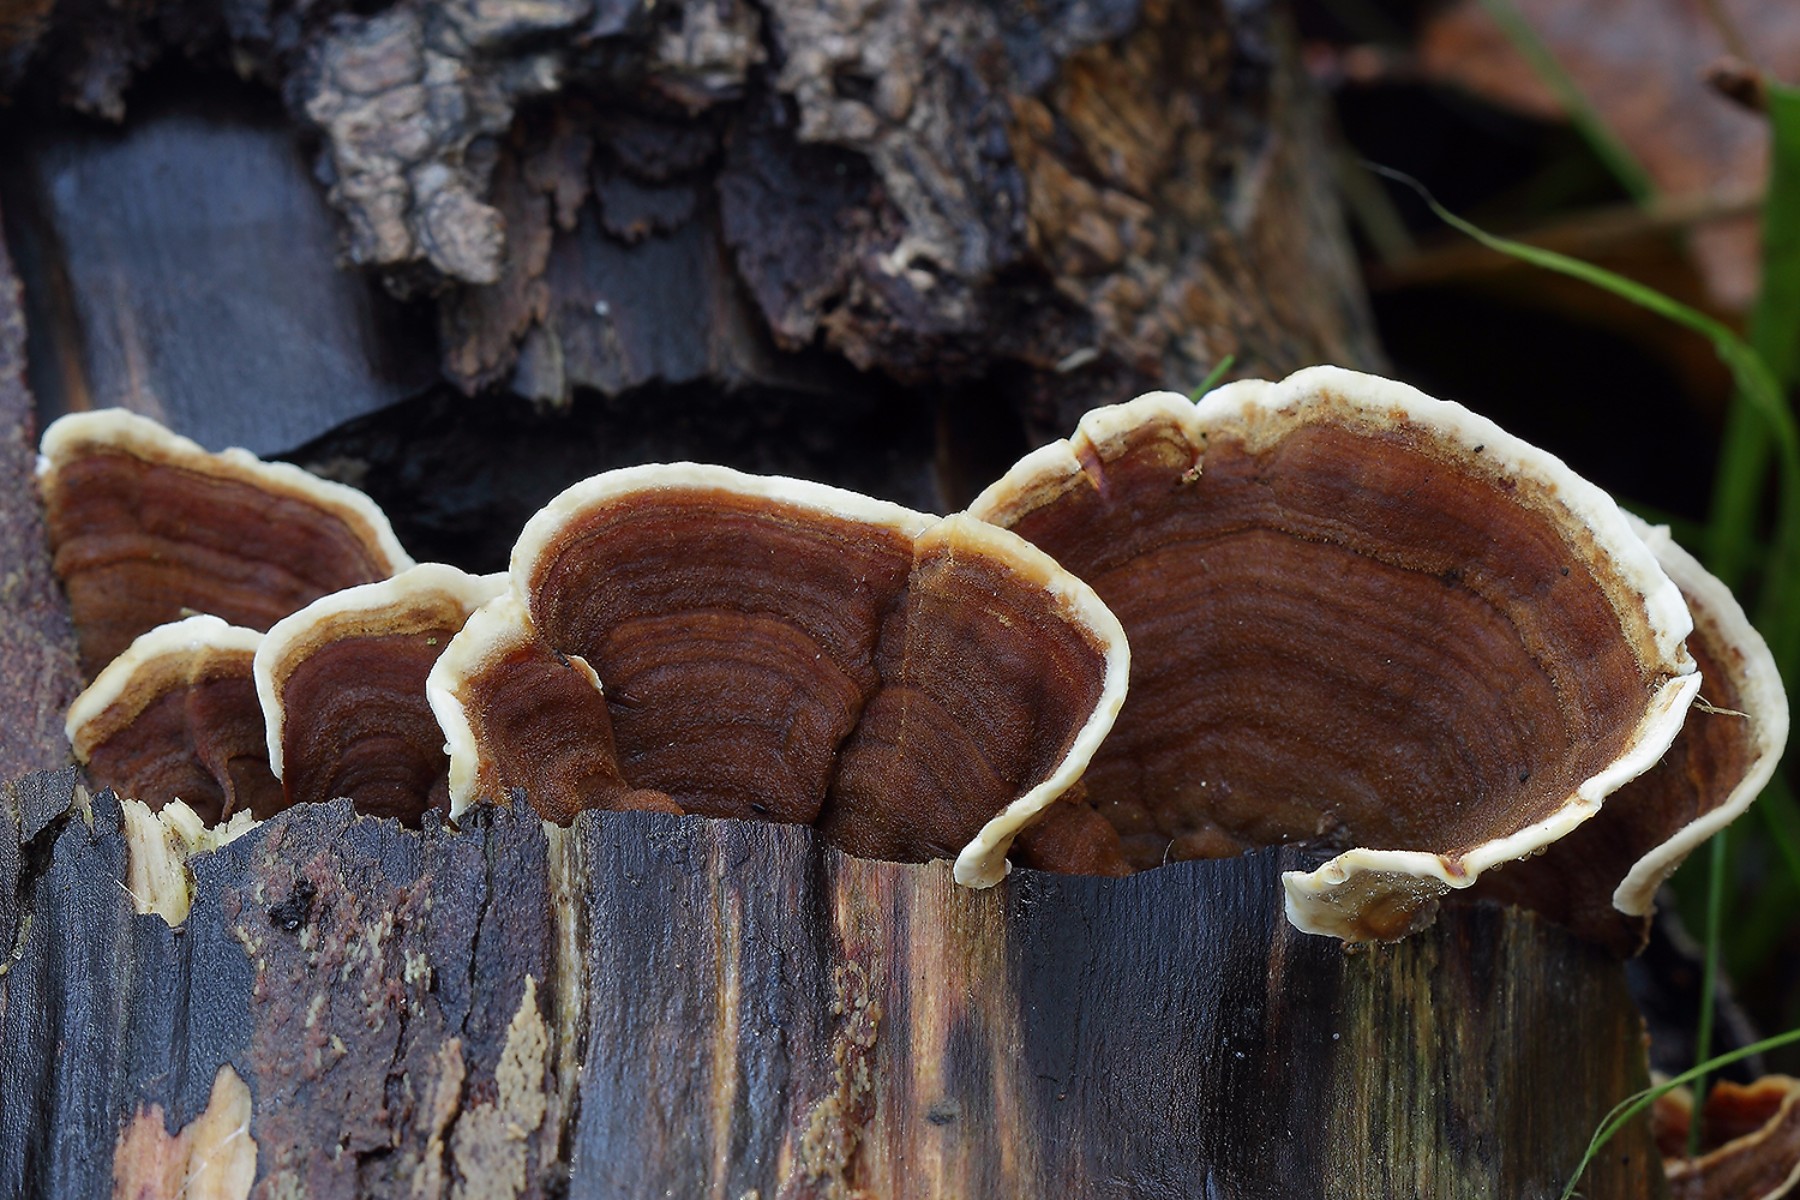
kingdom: Fungi
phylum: Basidiomycota
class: Agaricomycetes
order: Russulales
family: Hericiaceae
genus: Laxitextum
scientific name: Laxitextum bicolor
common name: tvefarvet filtskind
